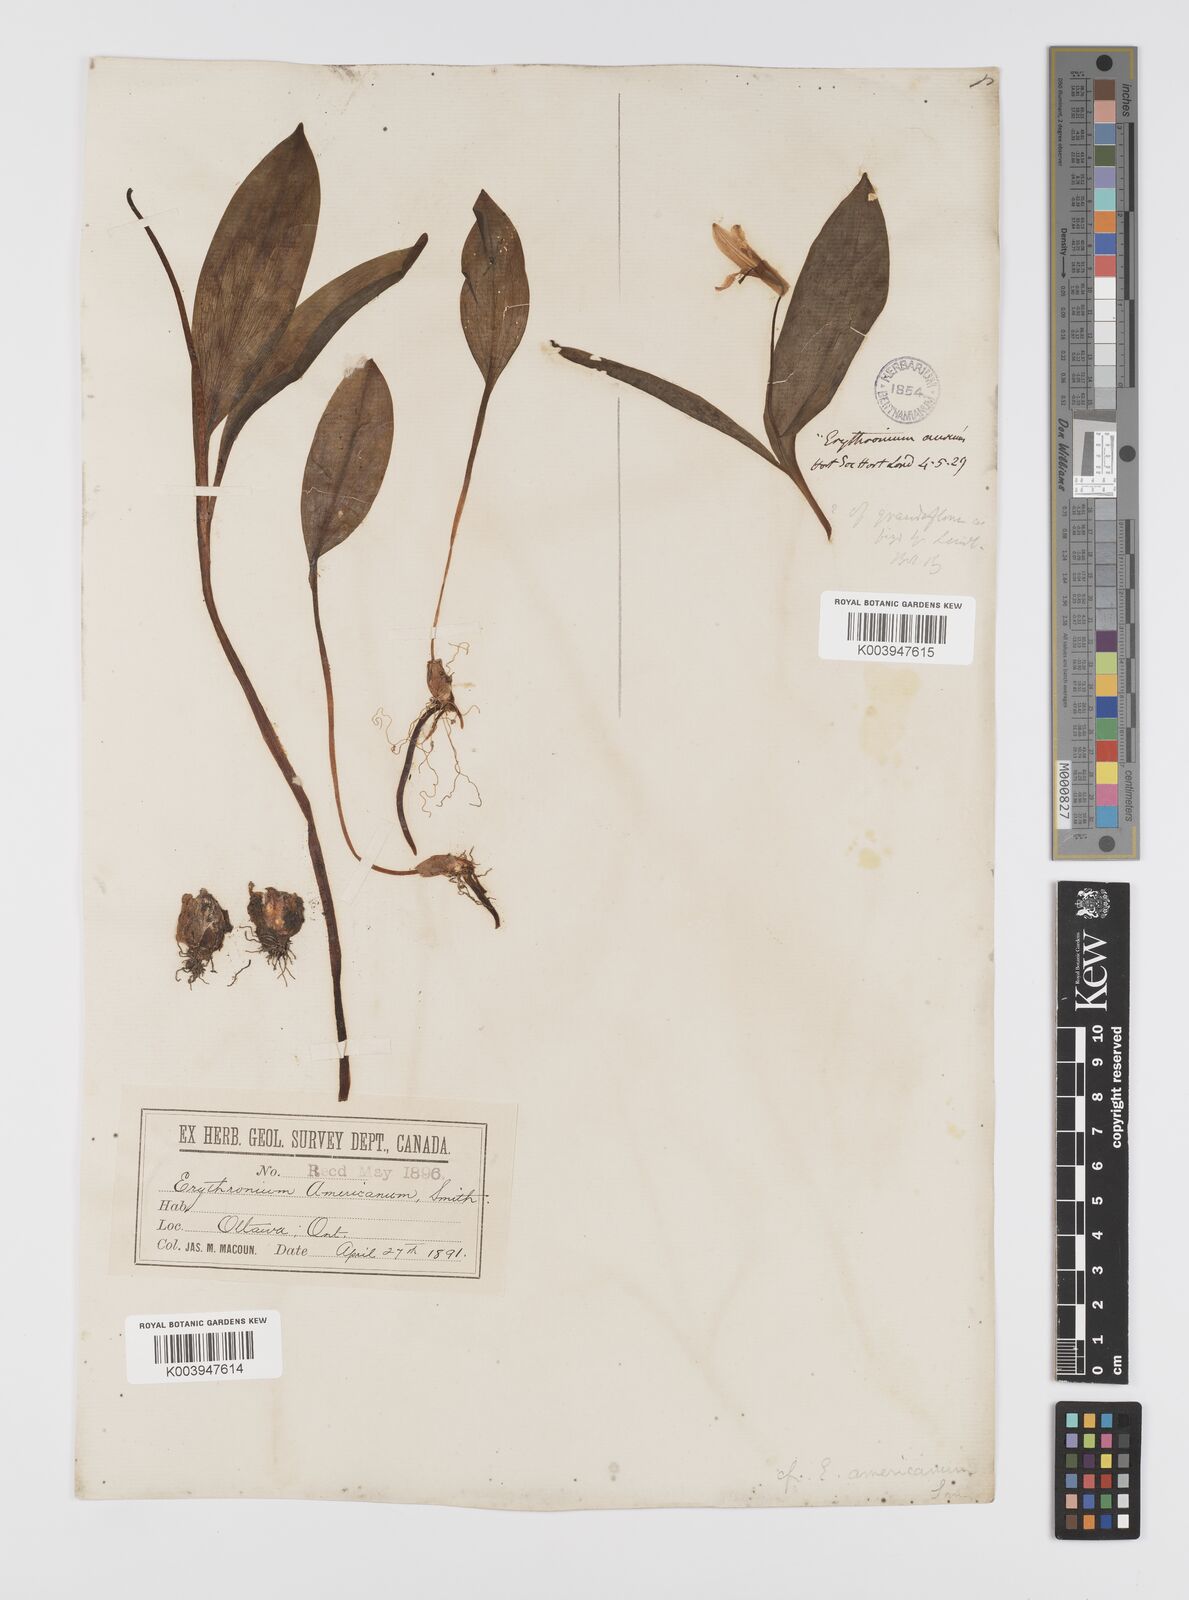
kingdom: Plantae
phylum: Tracheophyta
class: Liliopsida
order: Liliales
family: Liliaceae
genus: Erythronium
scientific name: Erythronium grandiflorum
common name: Avalanche-lily
